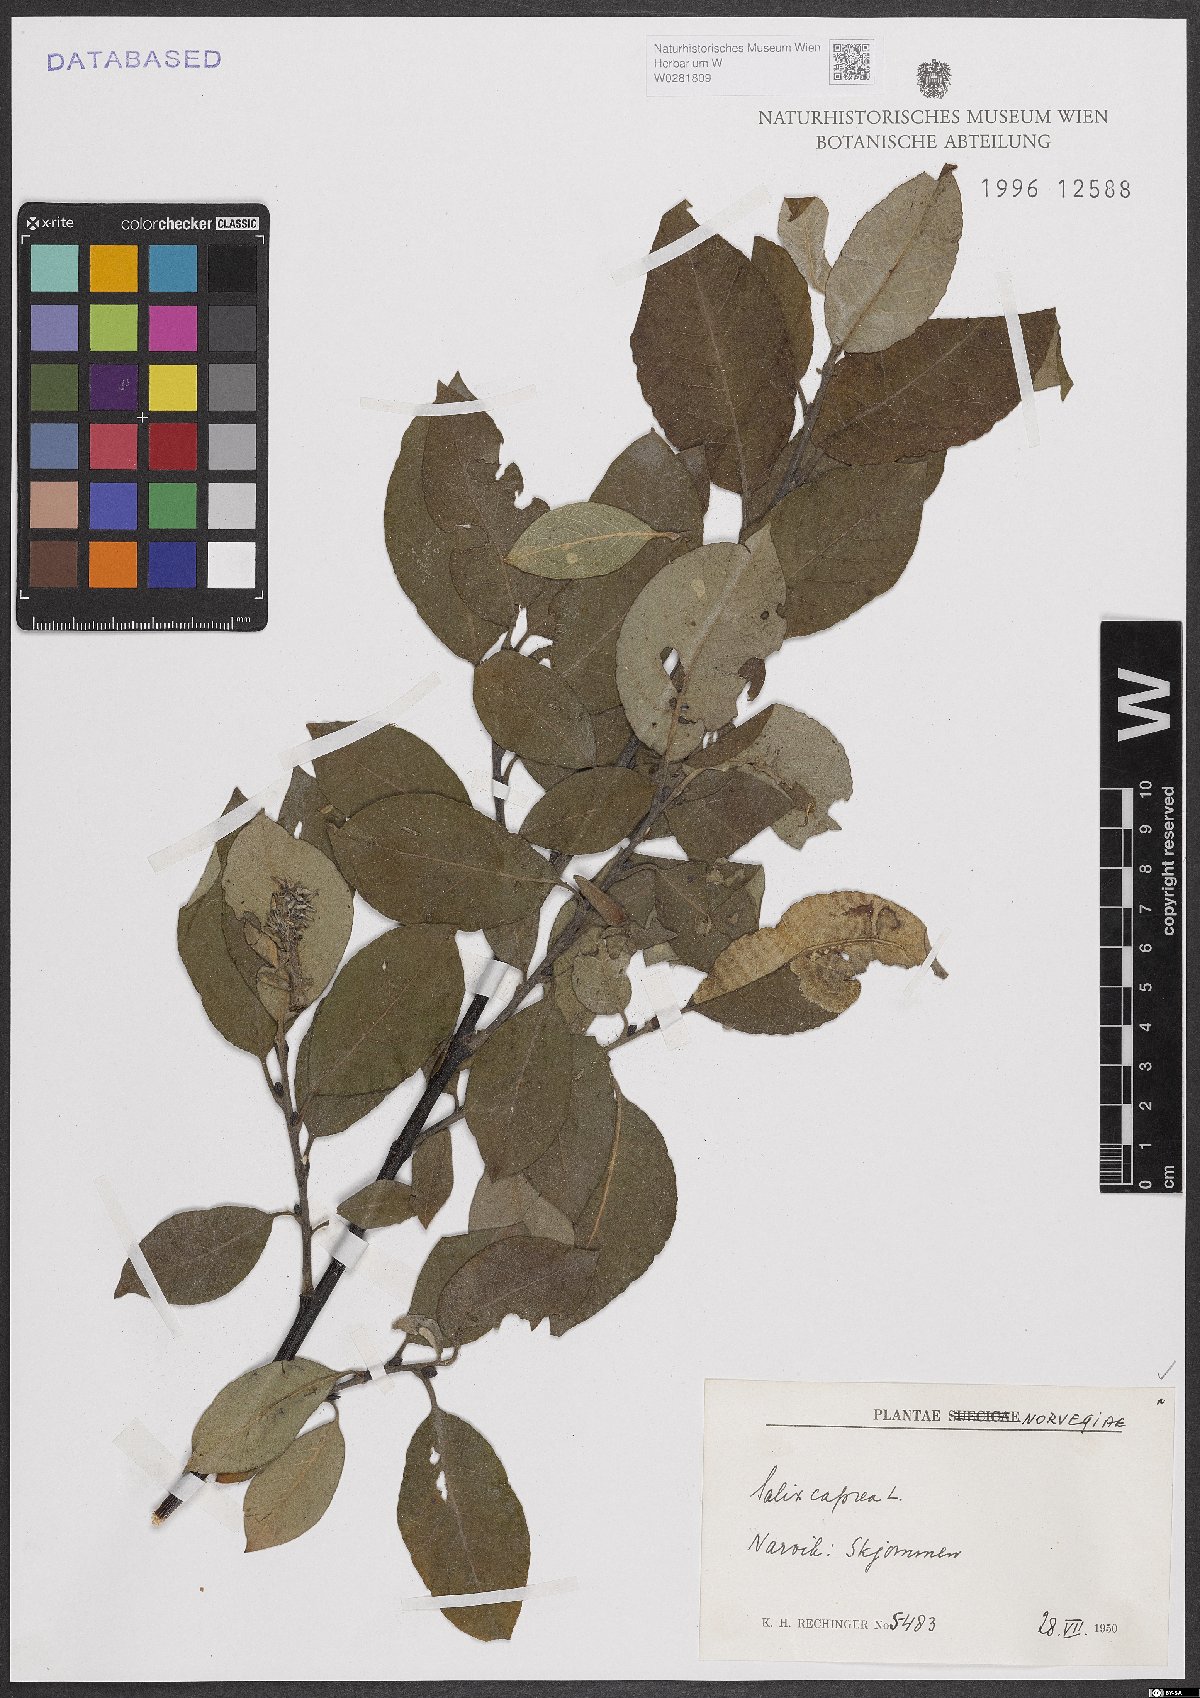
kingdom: Plantae
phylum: Tracheophyta
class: Magnoliopsida
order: Malpighiales
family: Salicaceae
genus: Salix
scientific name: Salix caprea
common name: Goat willow
